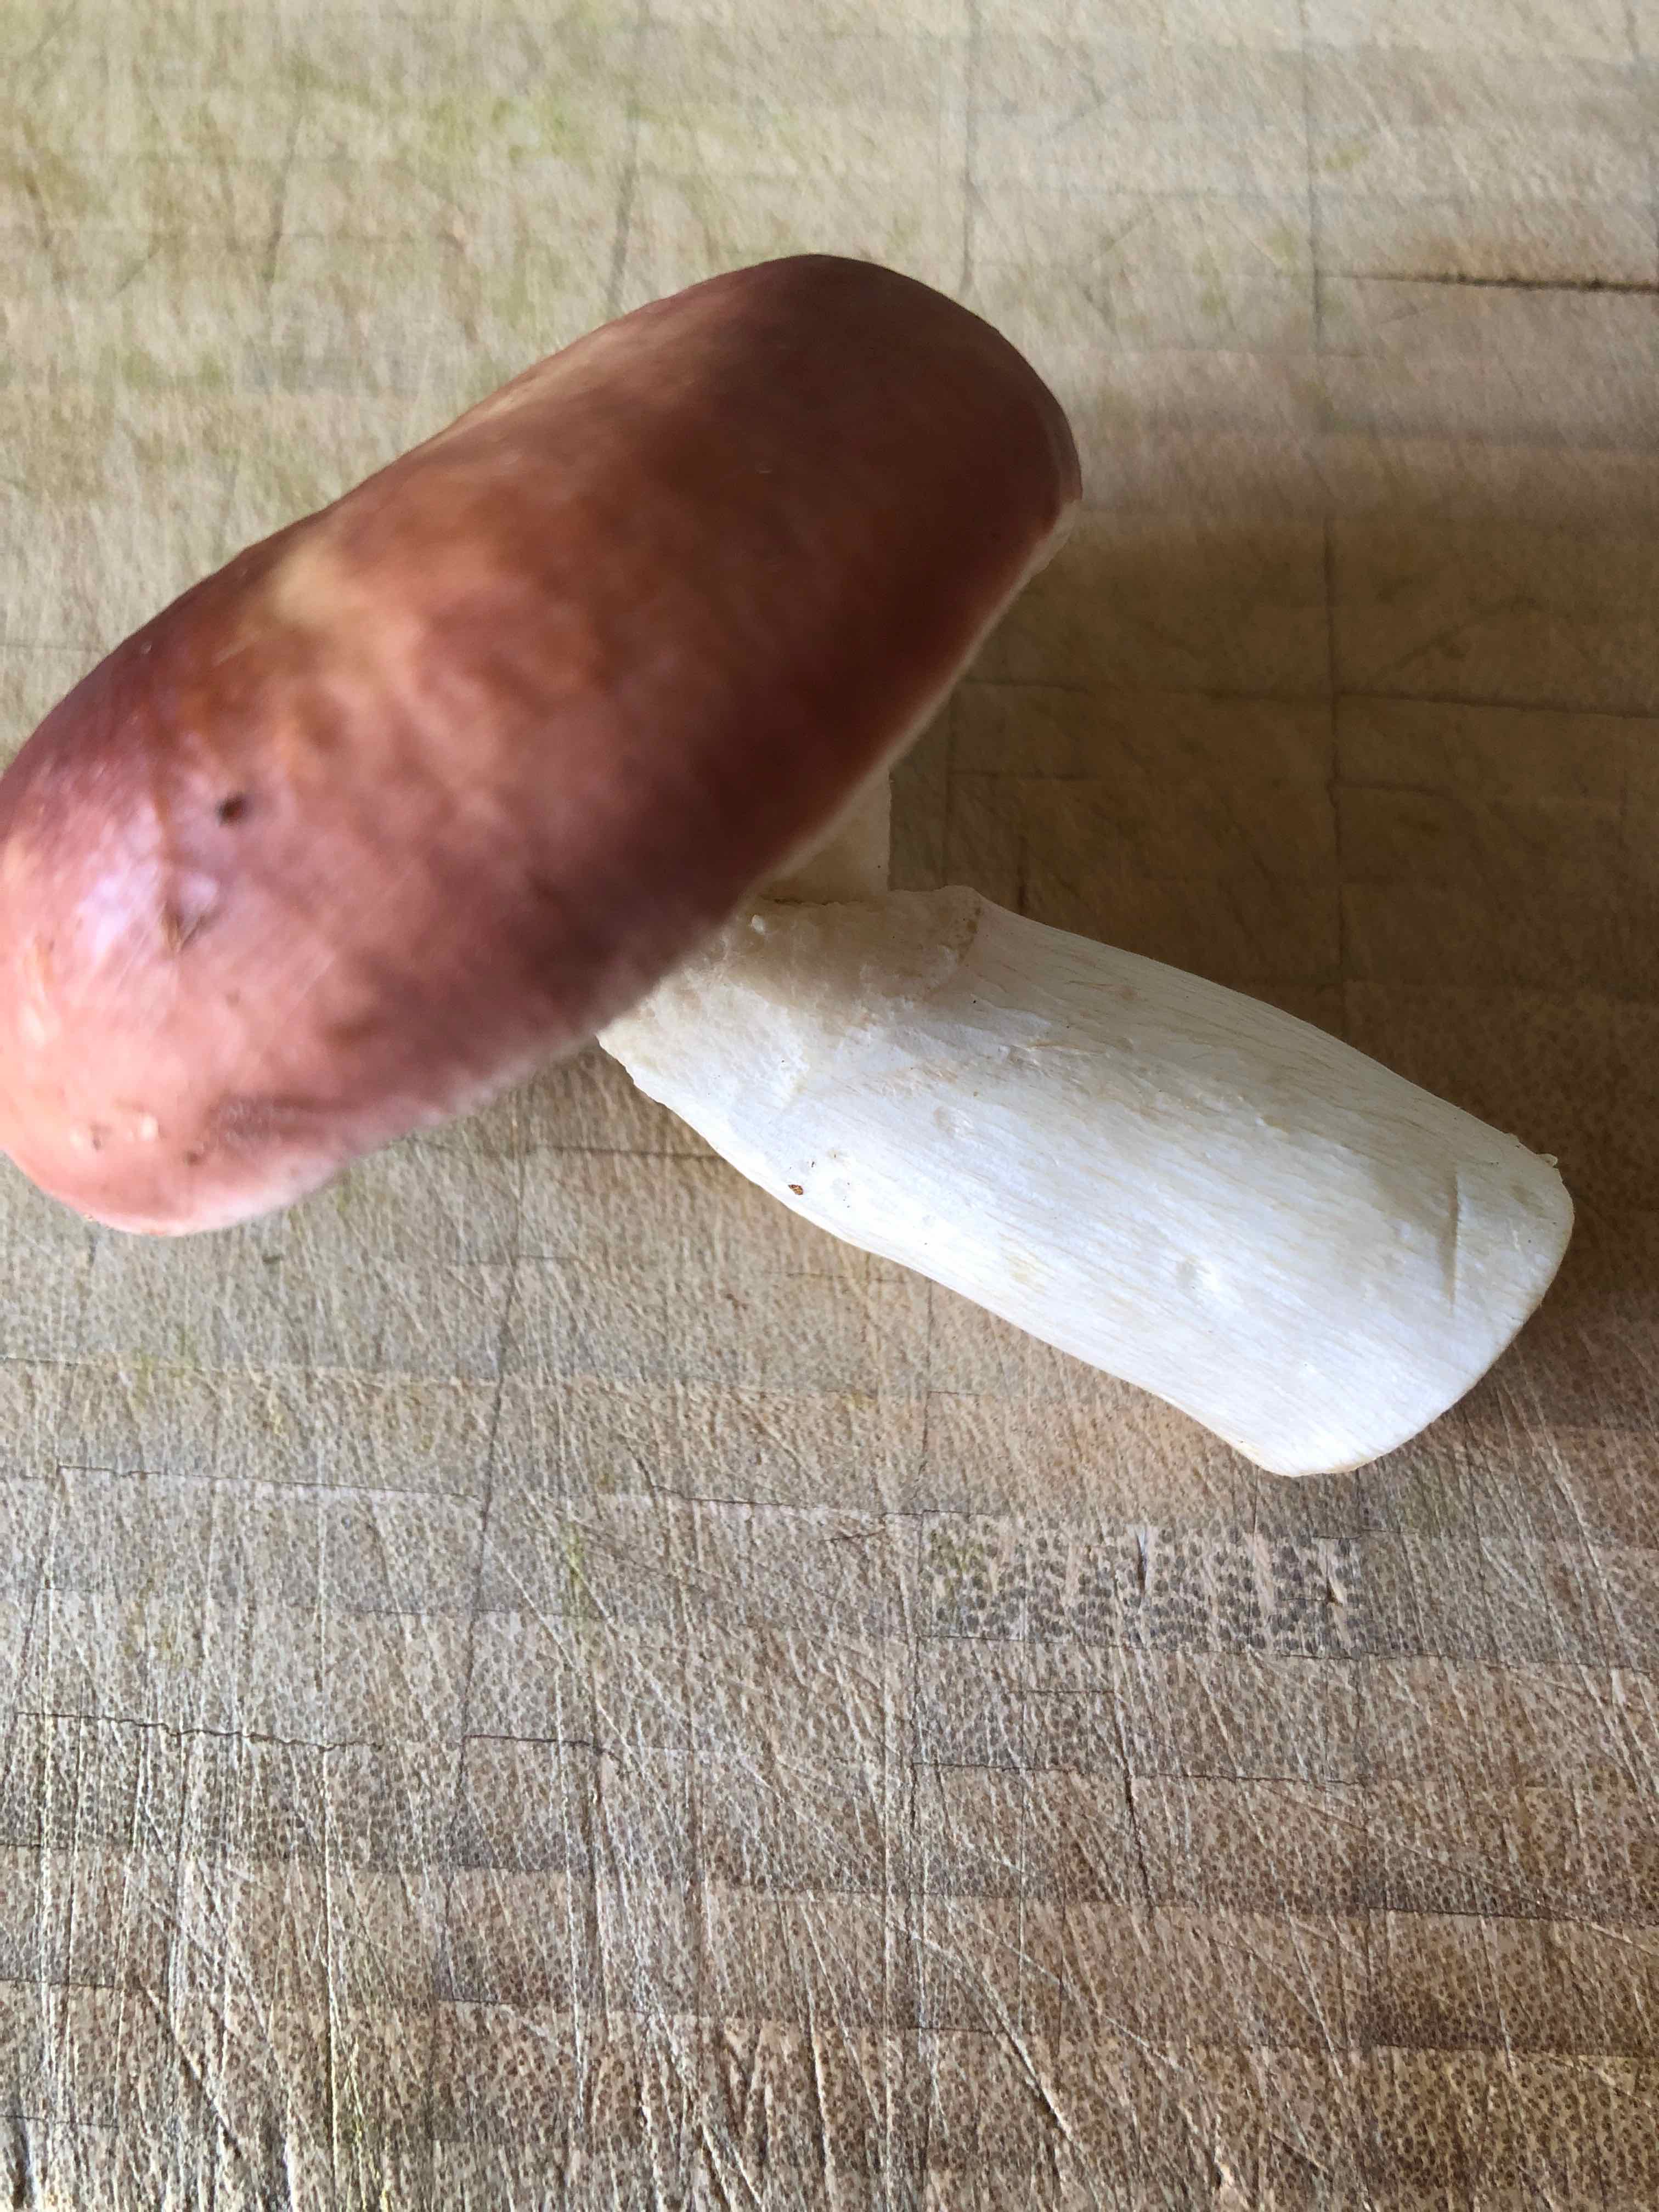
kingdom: Fungi
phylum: Basidiomycota
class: Agaricomycetes
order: Russulales
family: Russulaceae
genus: Russula
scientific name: Russula
